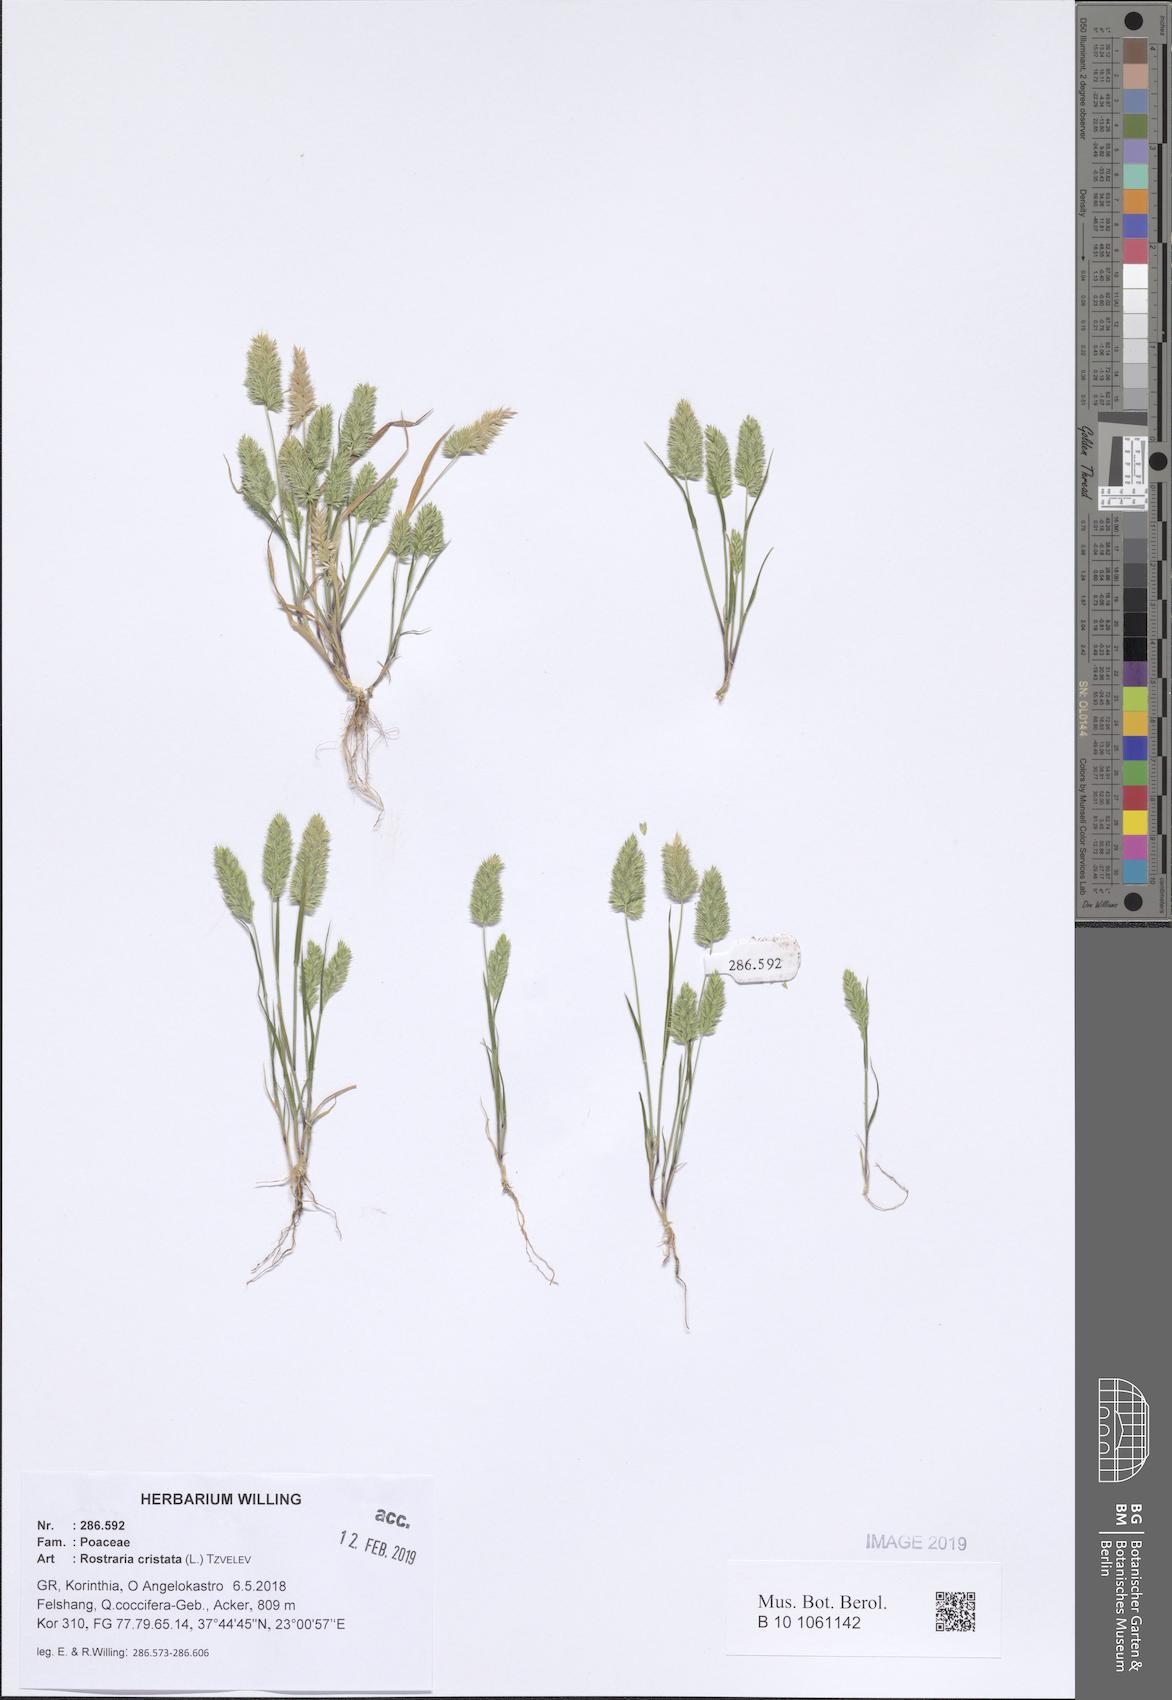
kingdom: Plantae
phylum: Tracheophyta
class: Liliopsida
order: Poales
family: Poaceae
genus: Rostraria
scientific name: Rostraria cristata
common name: Mediterranean hair-grass
